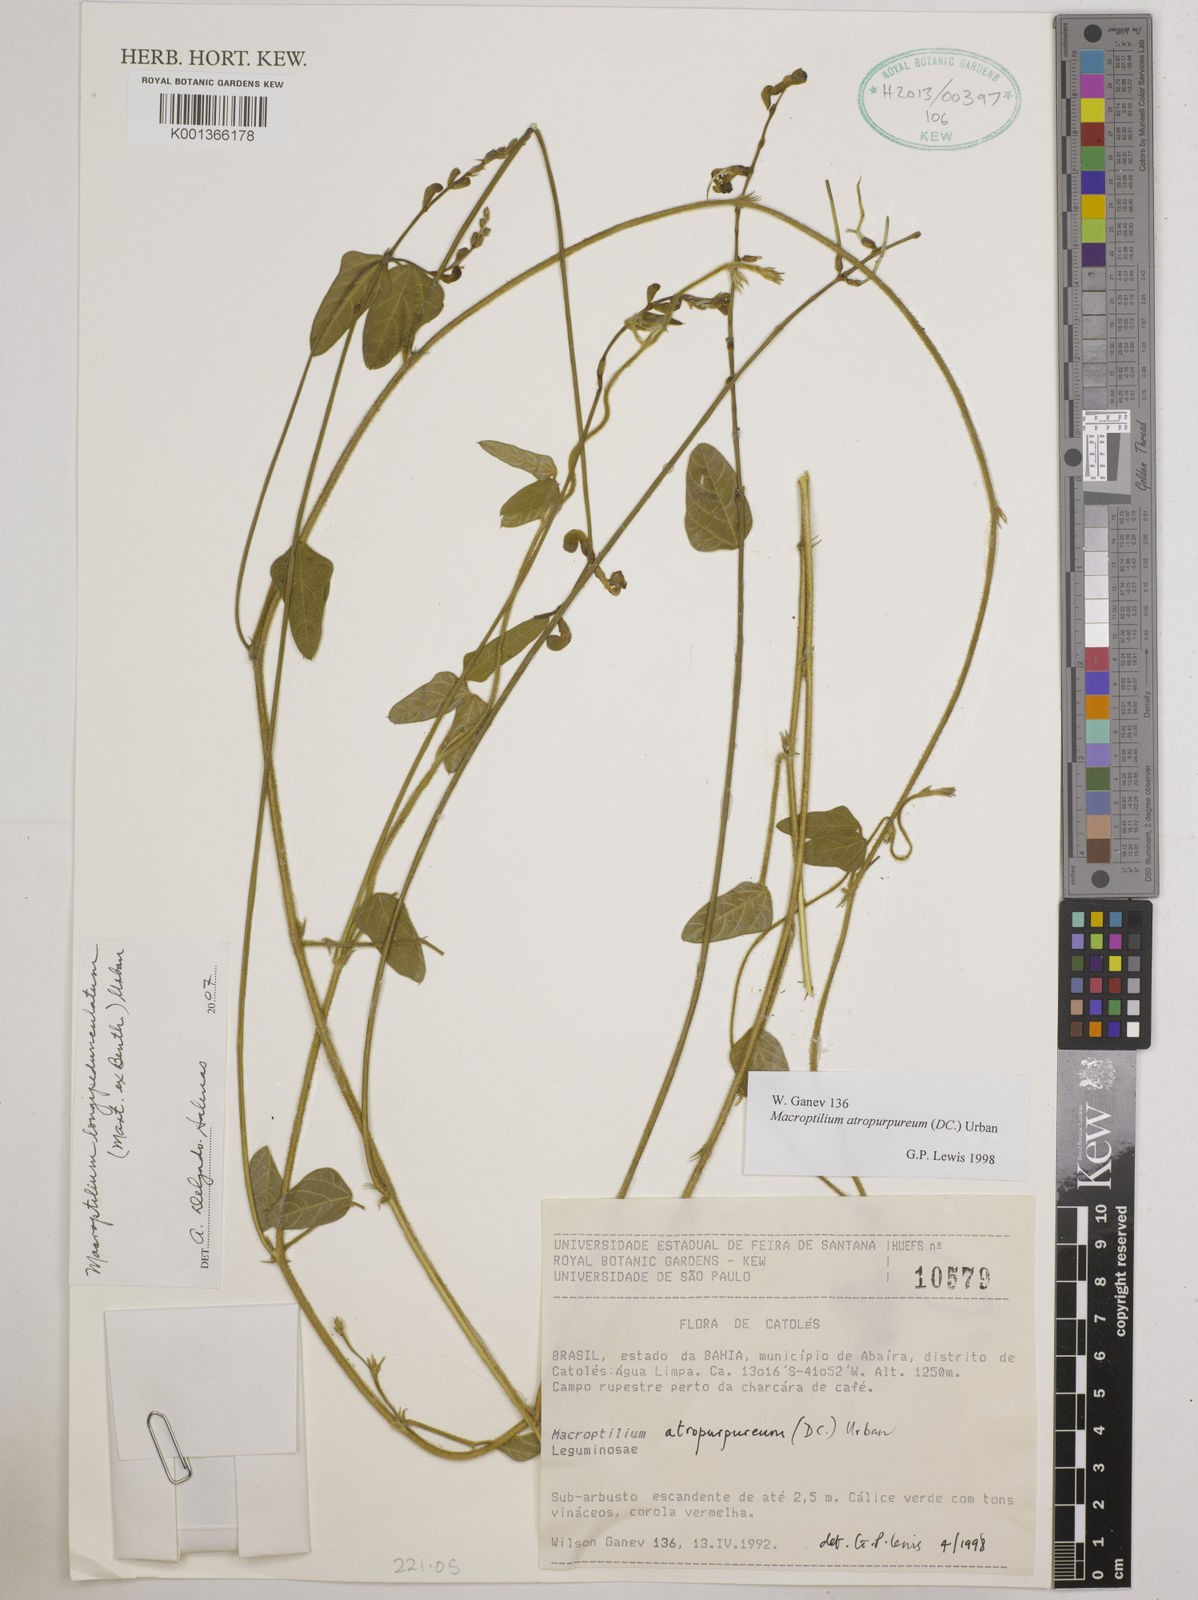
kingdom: Plantae
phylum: Tracheophyta
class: Magnoliopsida
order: Fabales
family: Fabaceae
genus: Macroptilium
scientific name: Macroptilium longepedunculatum
